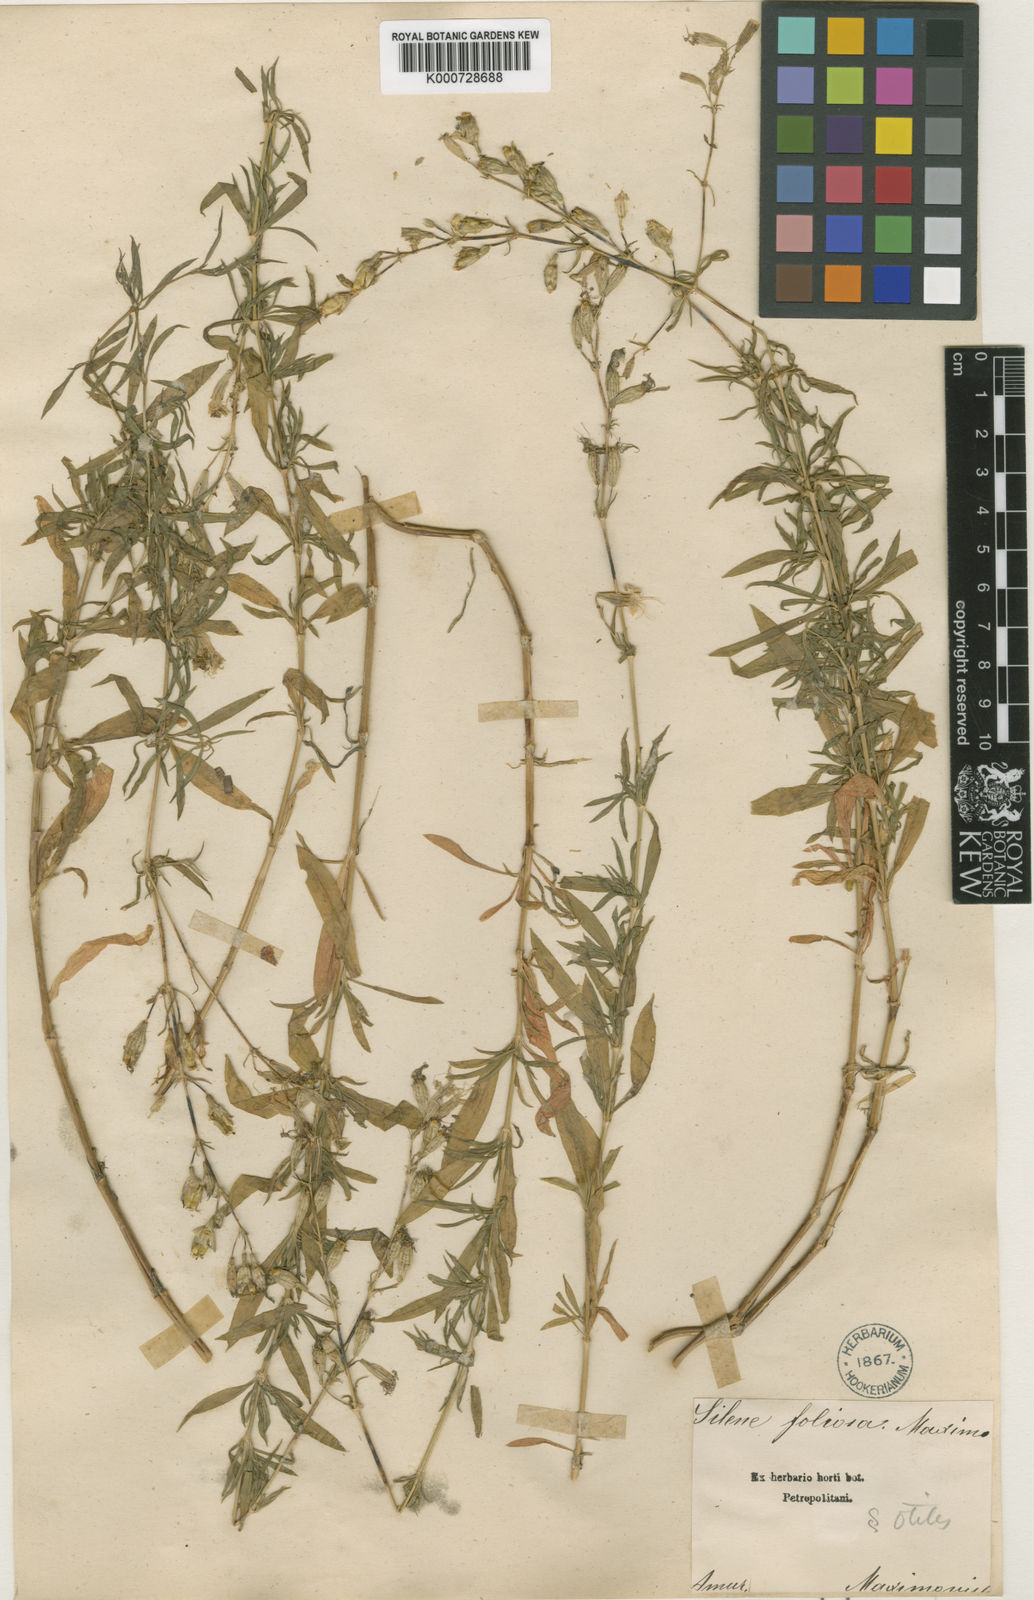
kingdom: Plantae
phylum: Tracheophyta
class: Magnoliopsida
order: Caryophyllales
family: Caryophyllaceae
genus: Silene
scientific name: Silene foliosa
